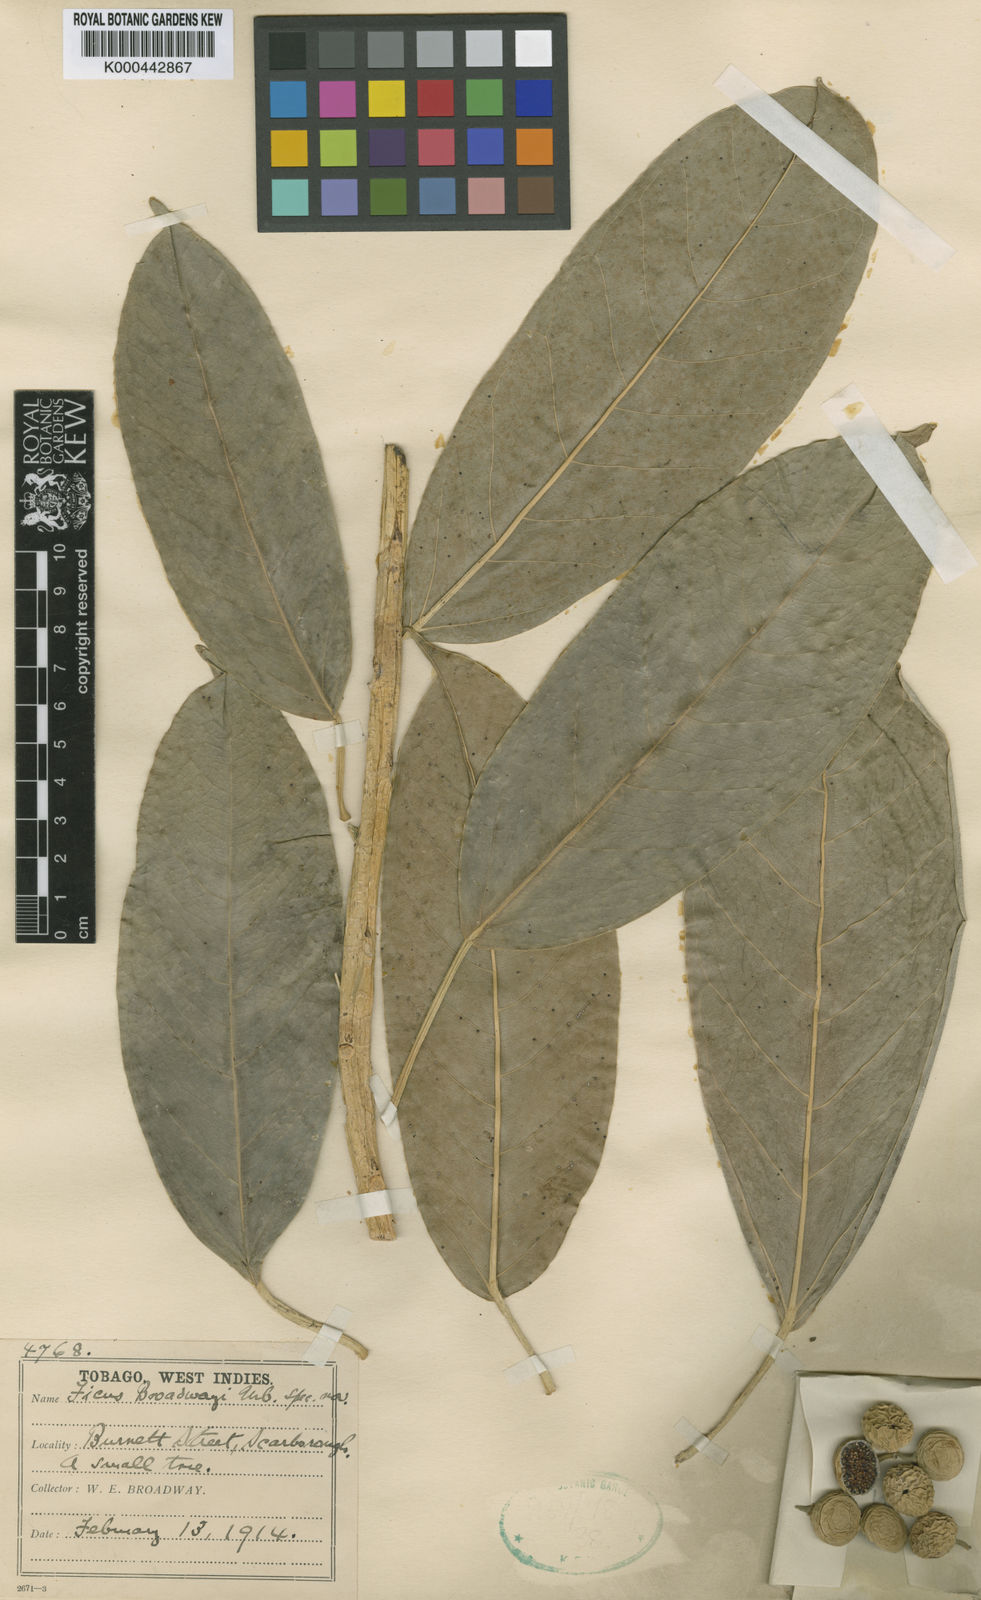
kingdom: Plantae
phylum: Tracheophyta
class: Magnoliopsida
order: Rosales
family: Moraceae
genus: Ficus
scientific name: Ficus broadwayi
